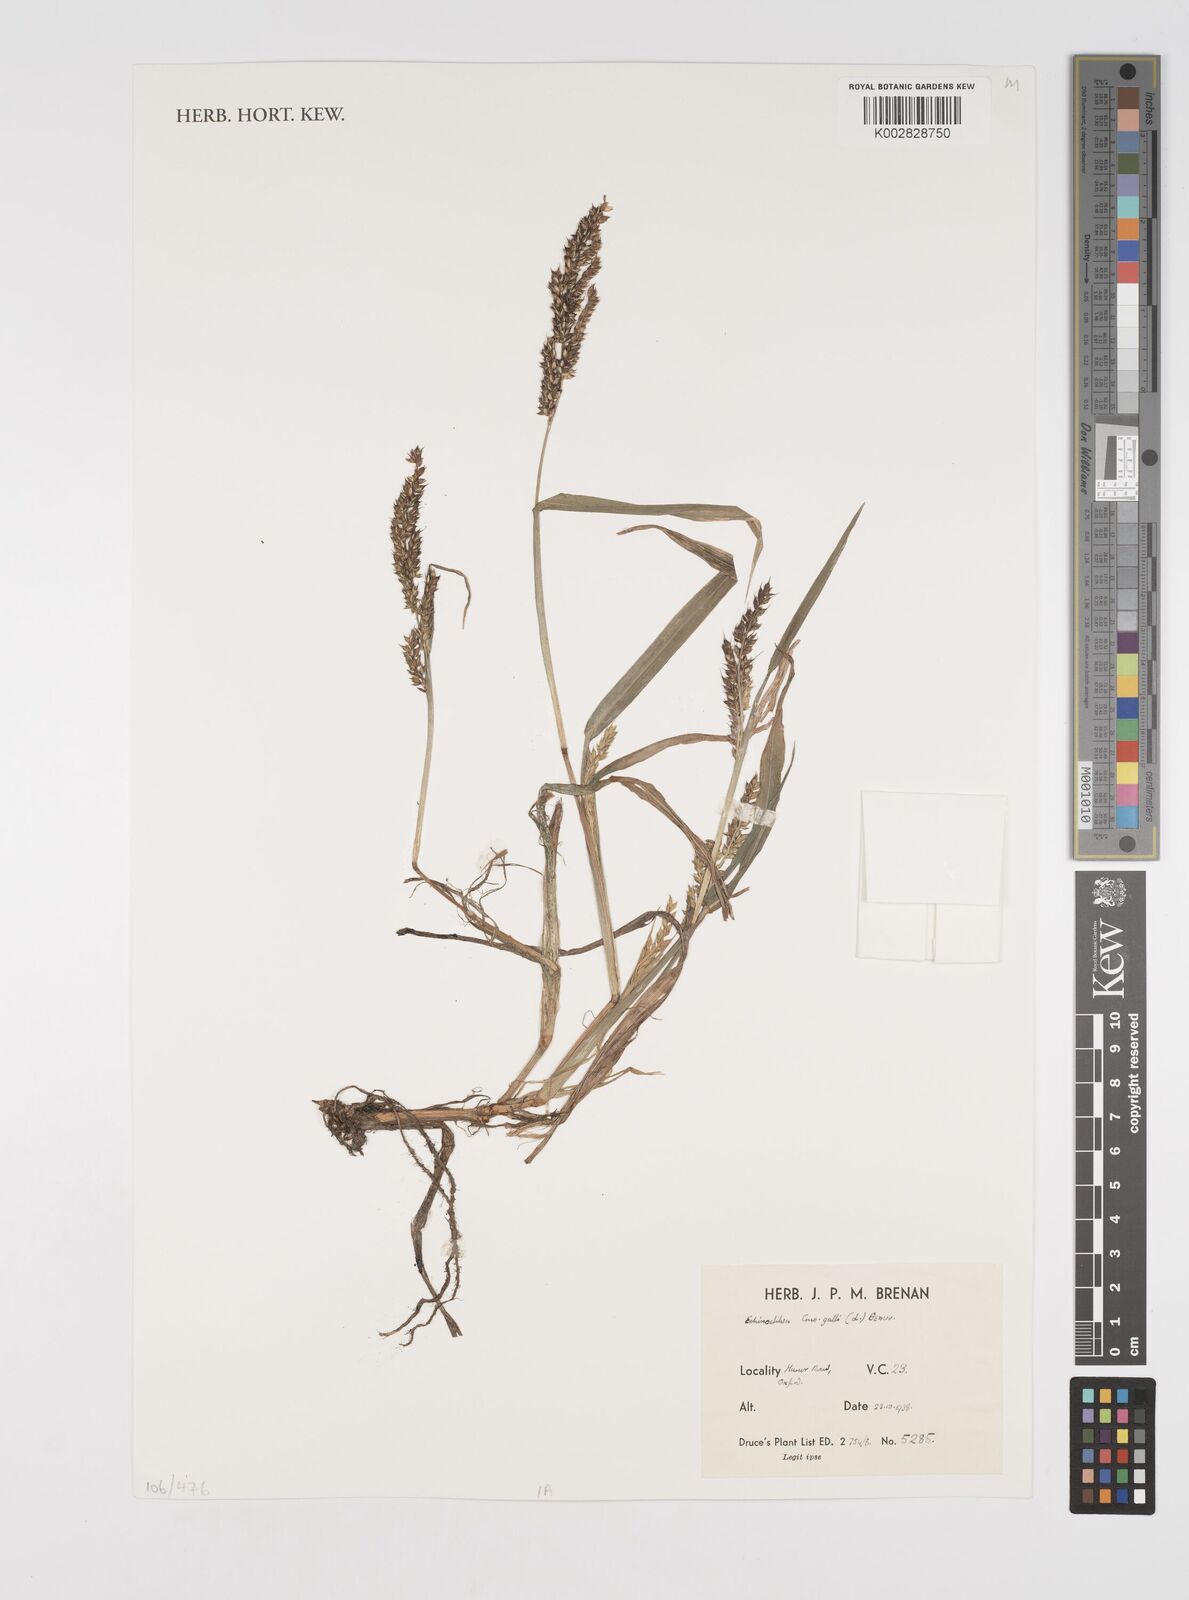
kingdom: Plantae
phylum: Tracheophyta
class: Liliopsida
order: Poales
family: Poaceae
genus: Echinochloa
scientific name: Echinochloa crus-galli
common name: Cockspur
